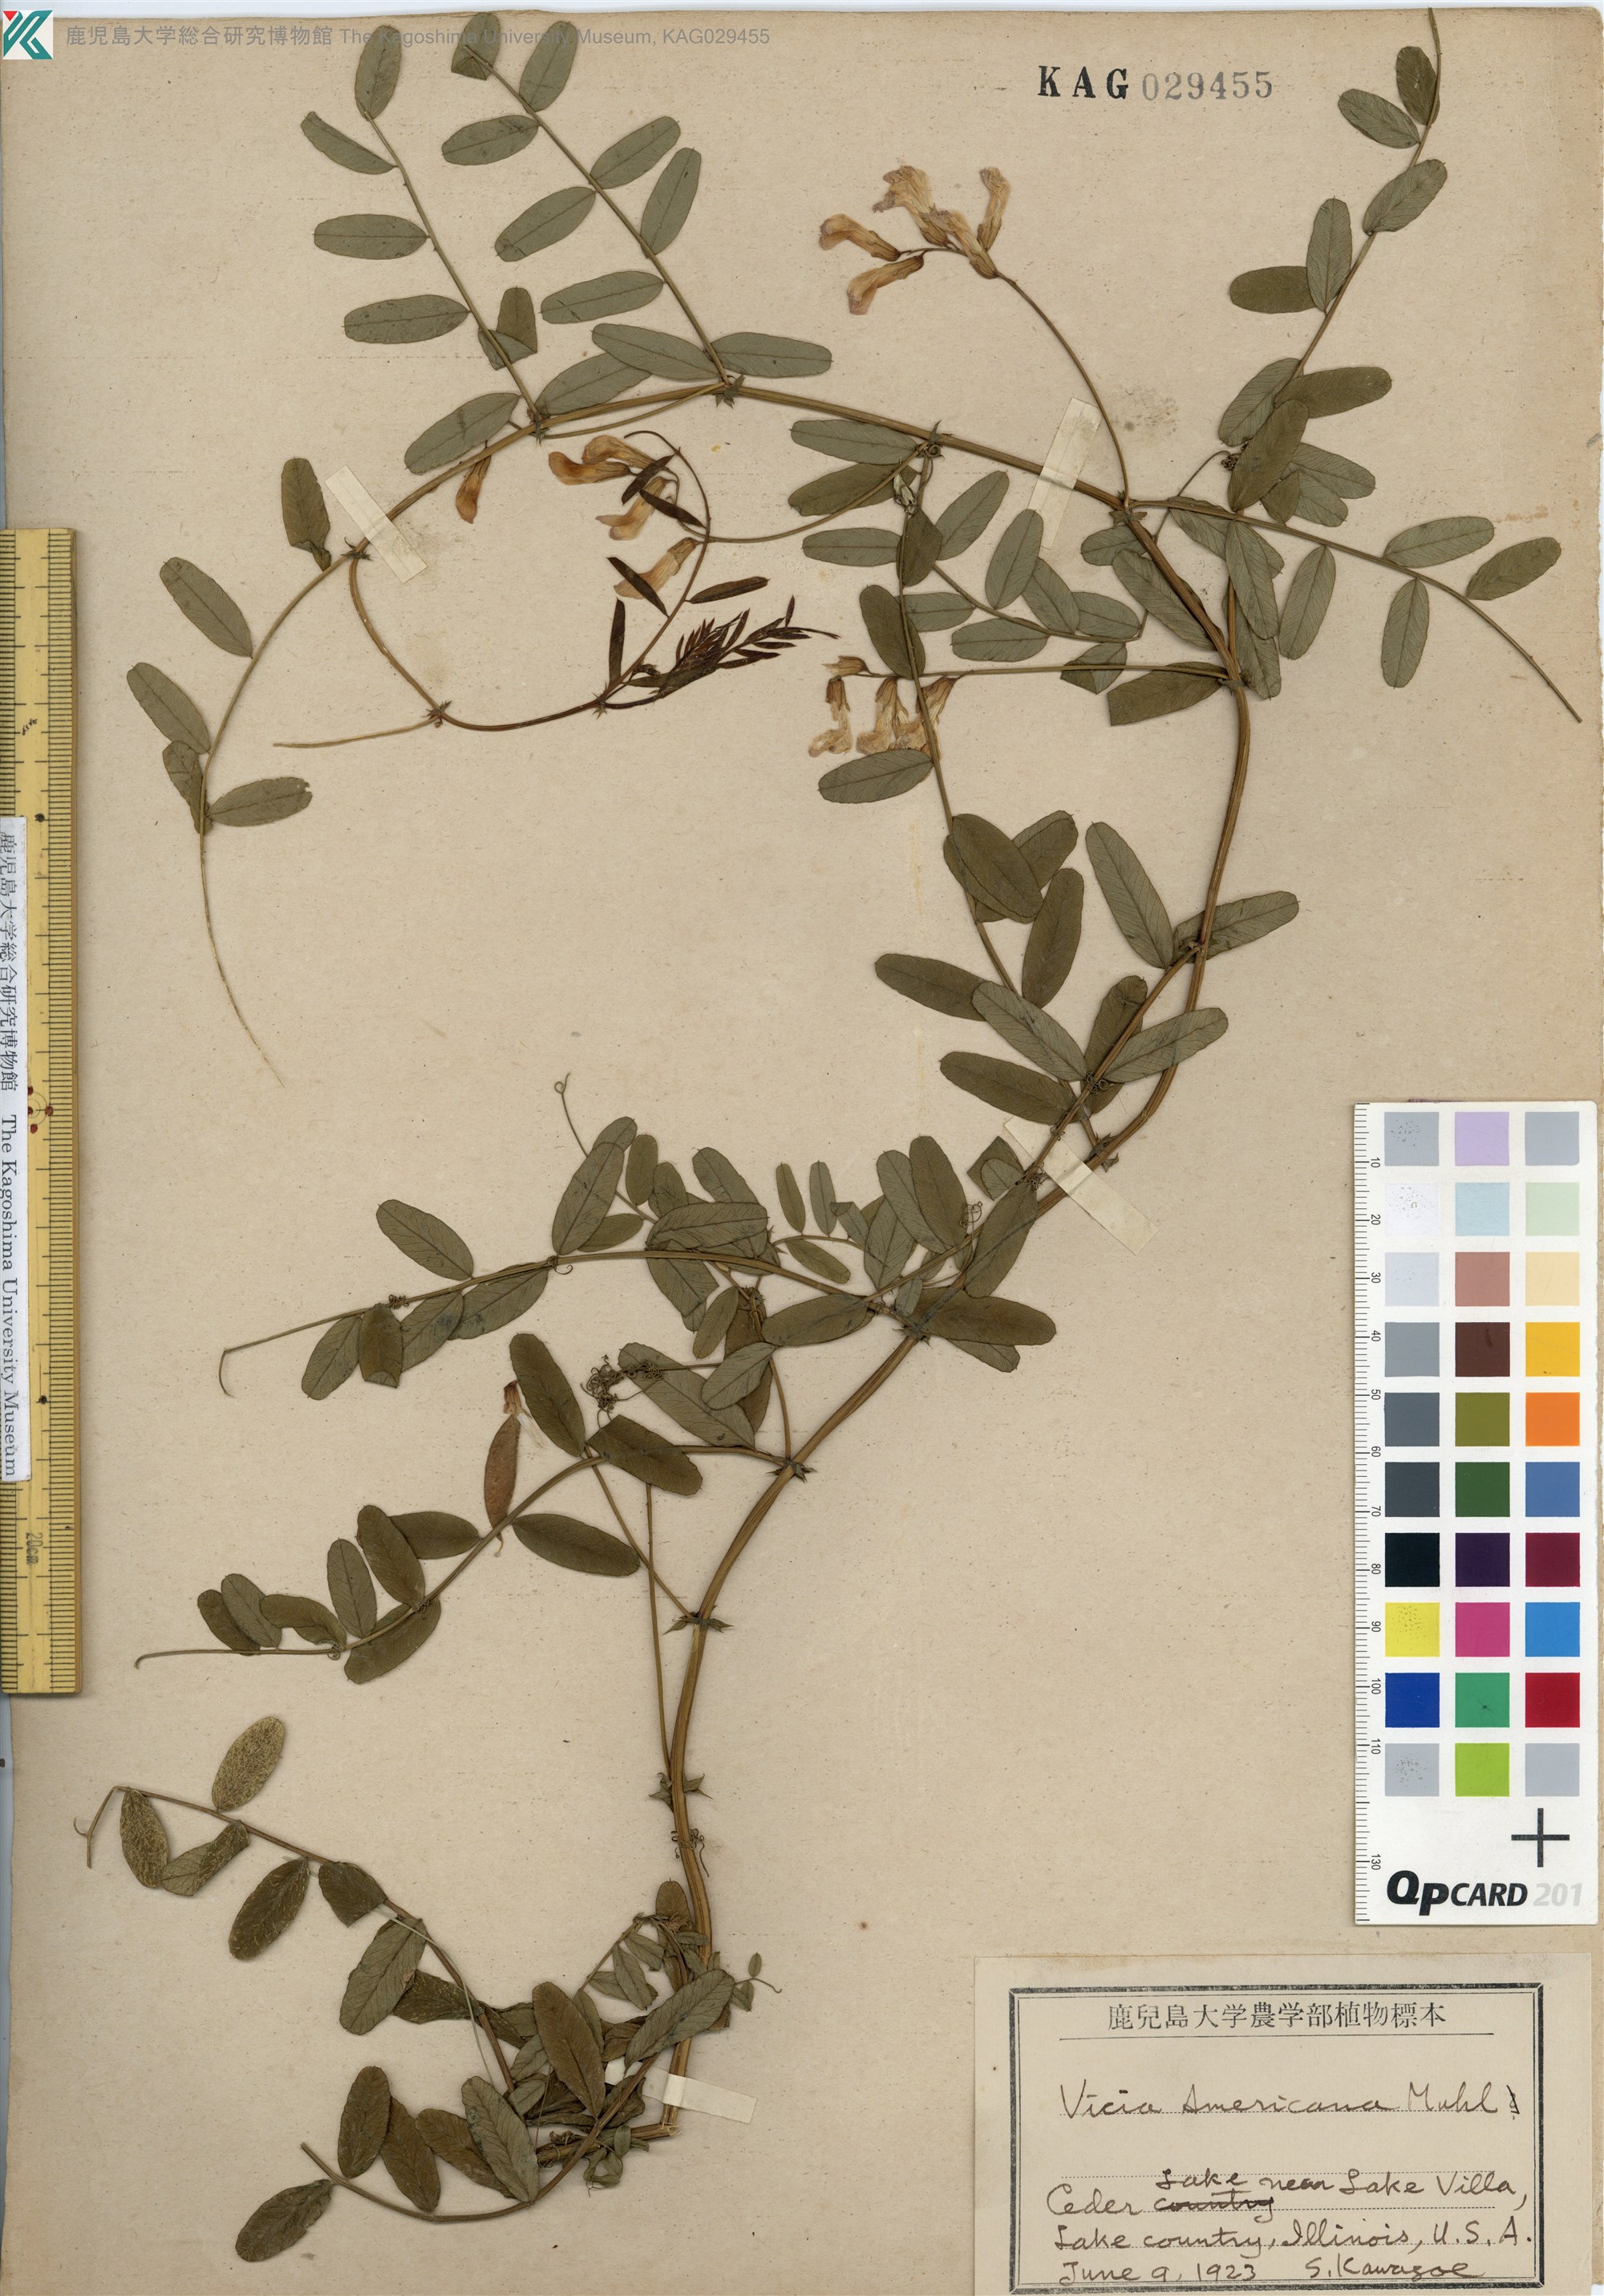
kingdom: Plantae
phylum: Tracheophyta
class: Magnoliopsida
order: Fabales
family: Fabaceae
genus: Vicia
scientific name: Vicia americana
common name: American vetch
